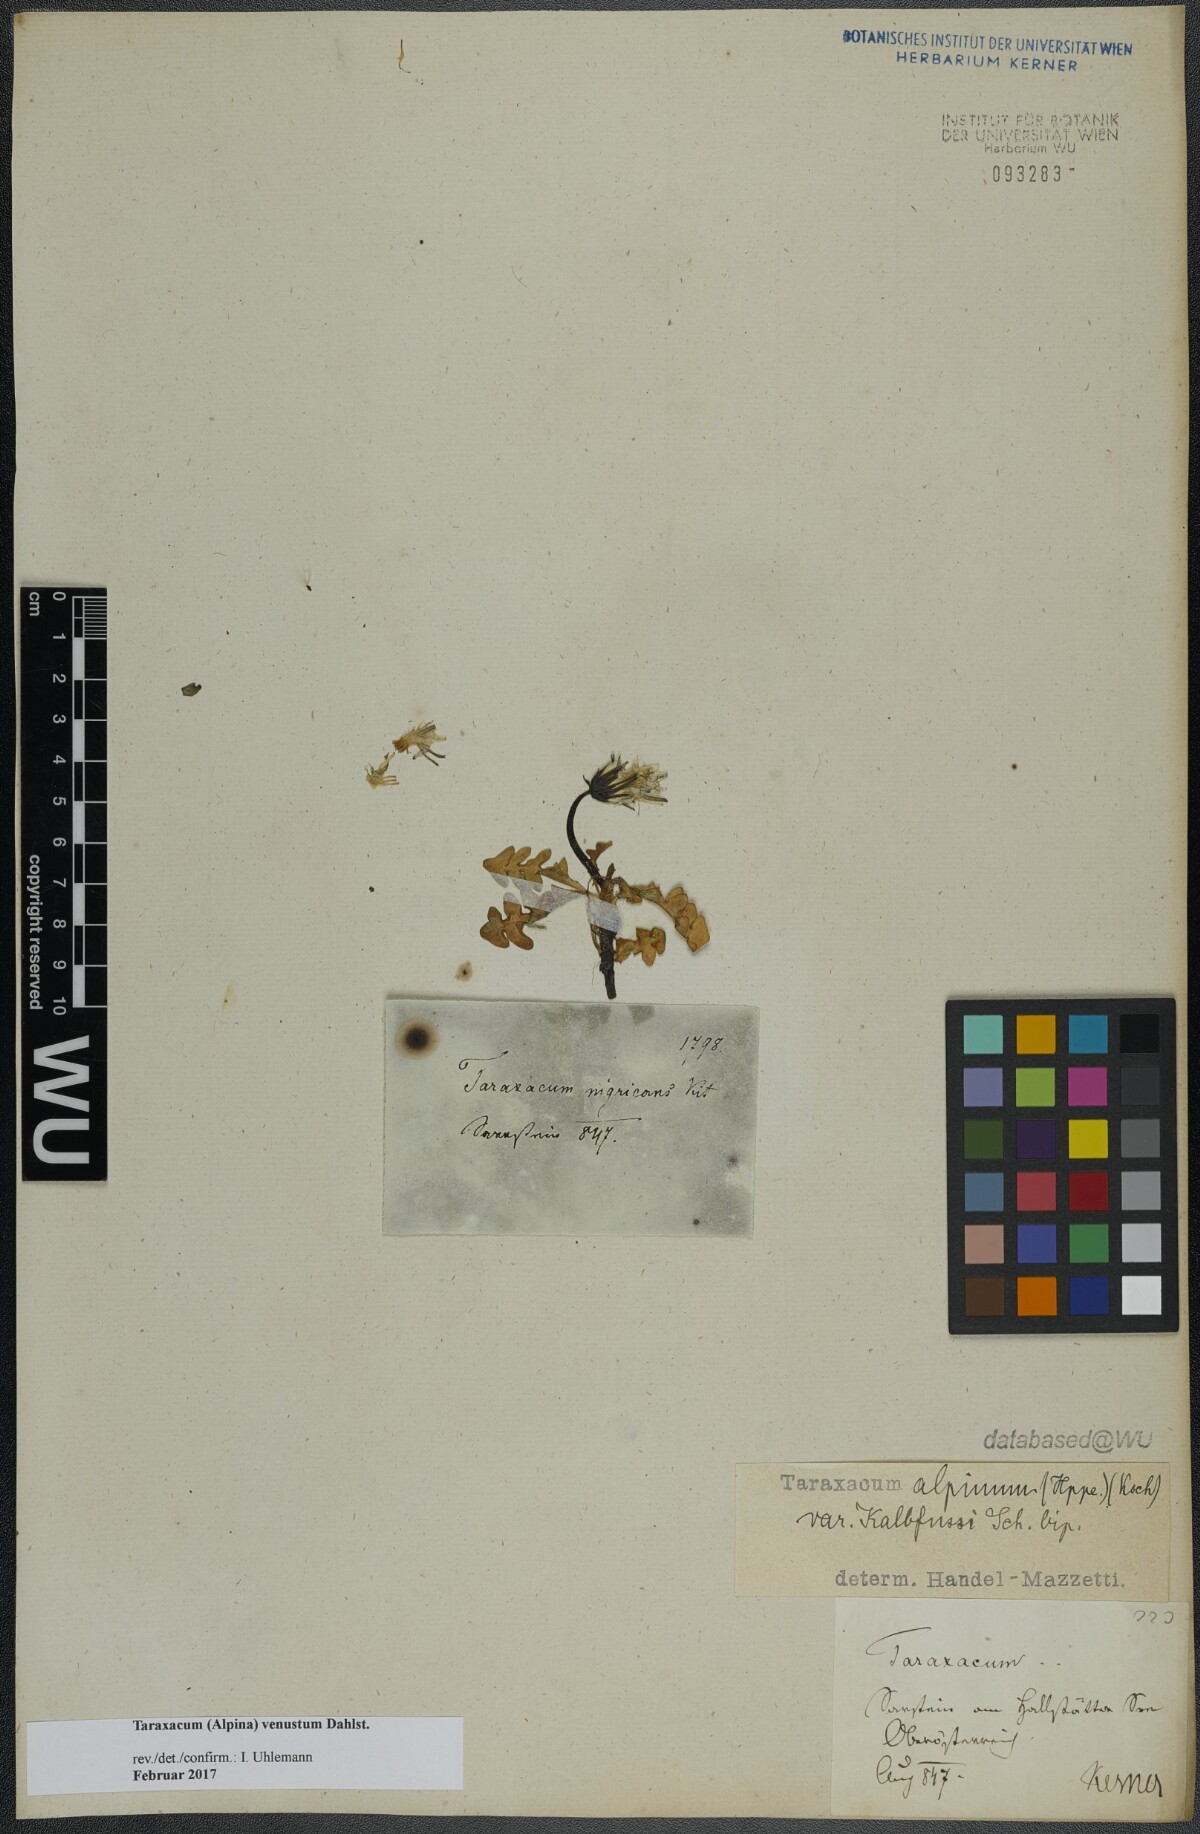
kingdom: Plantae
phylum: Tracheophyta
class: Magnoliopsida
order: Asterales
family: Asteraceae
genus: Taraxacum
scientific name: Taraxacum venustum
